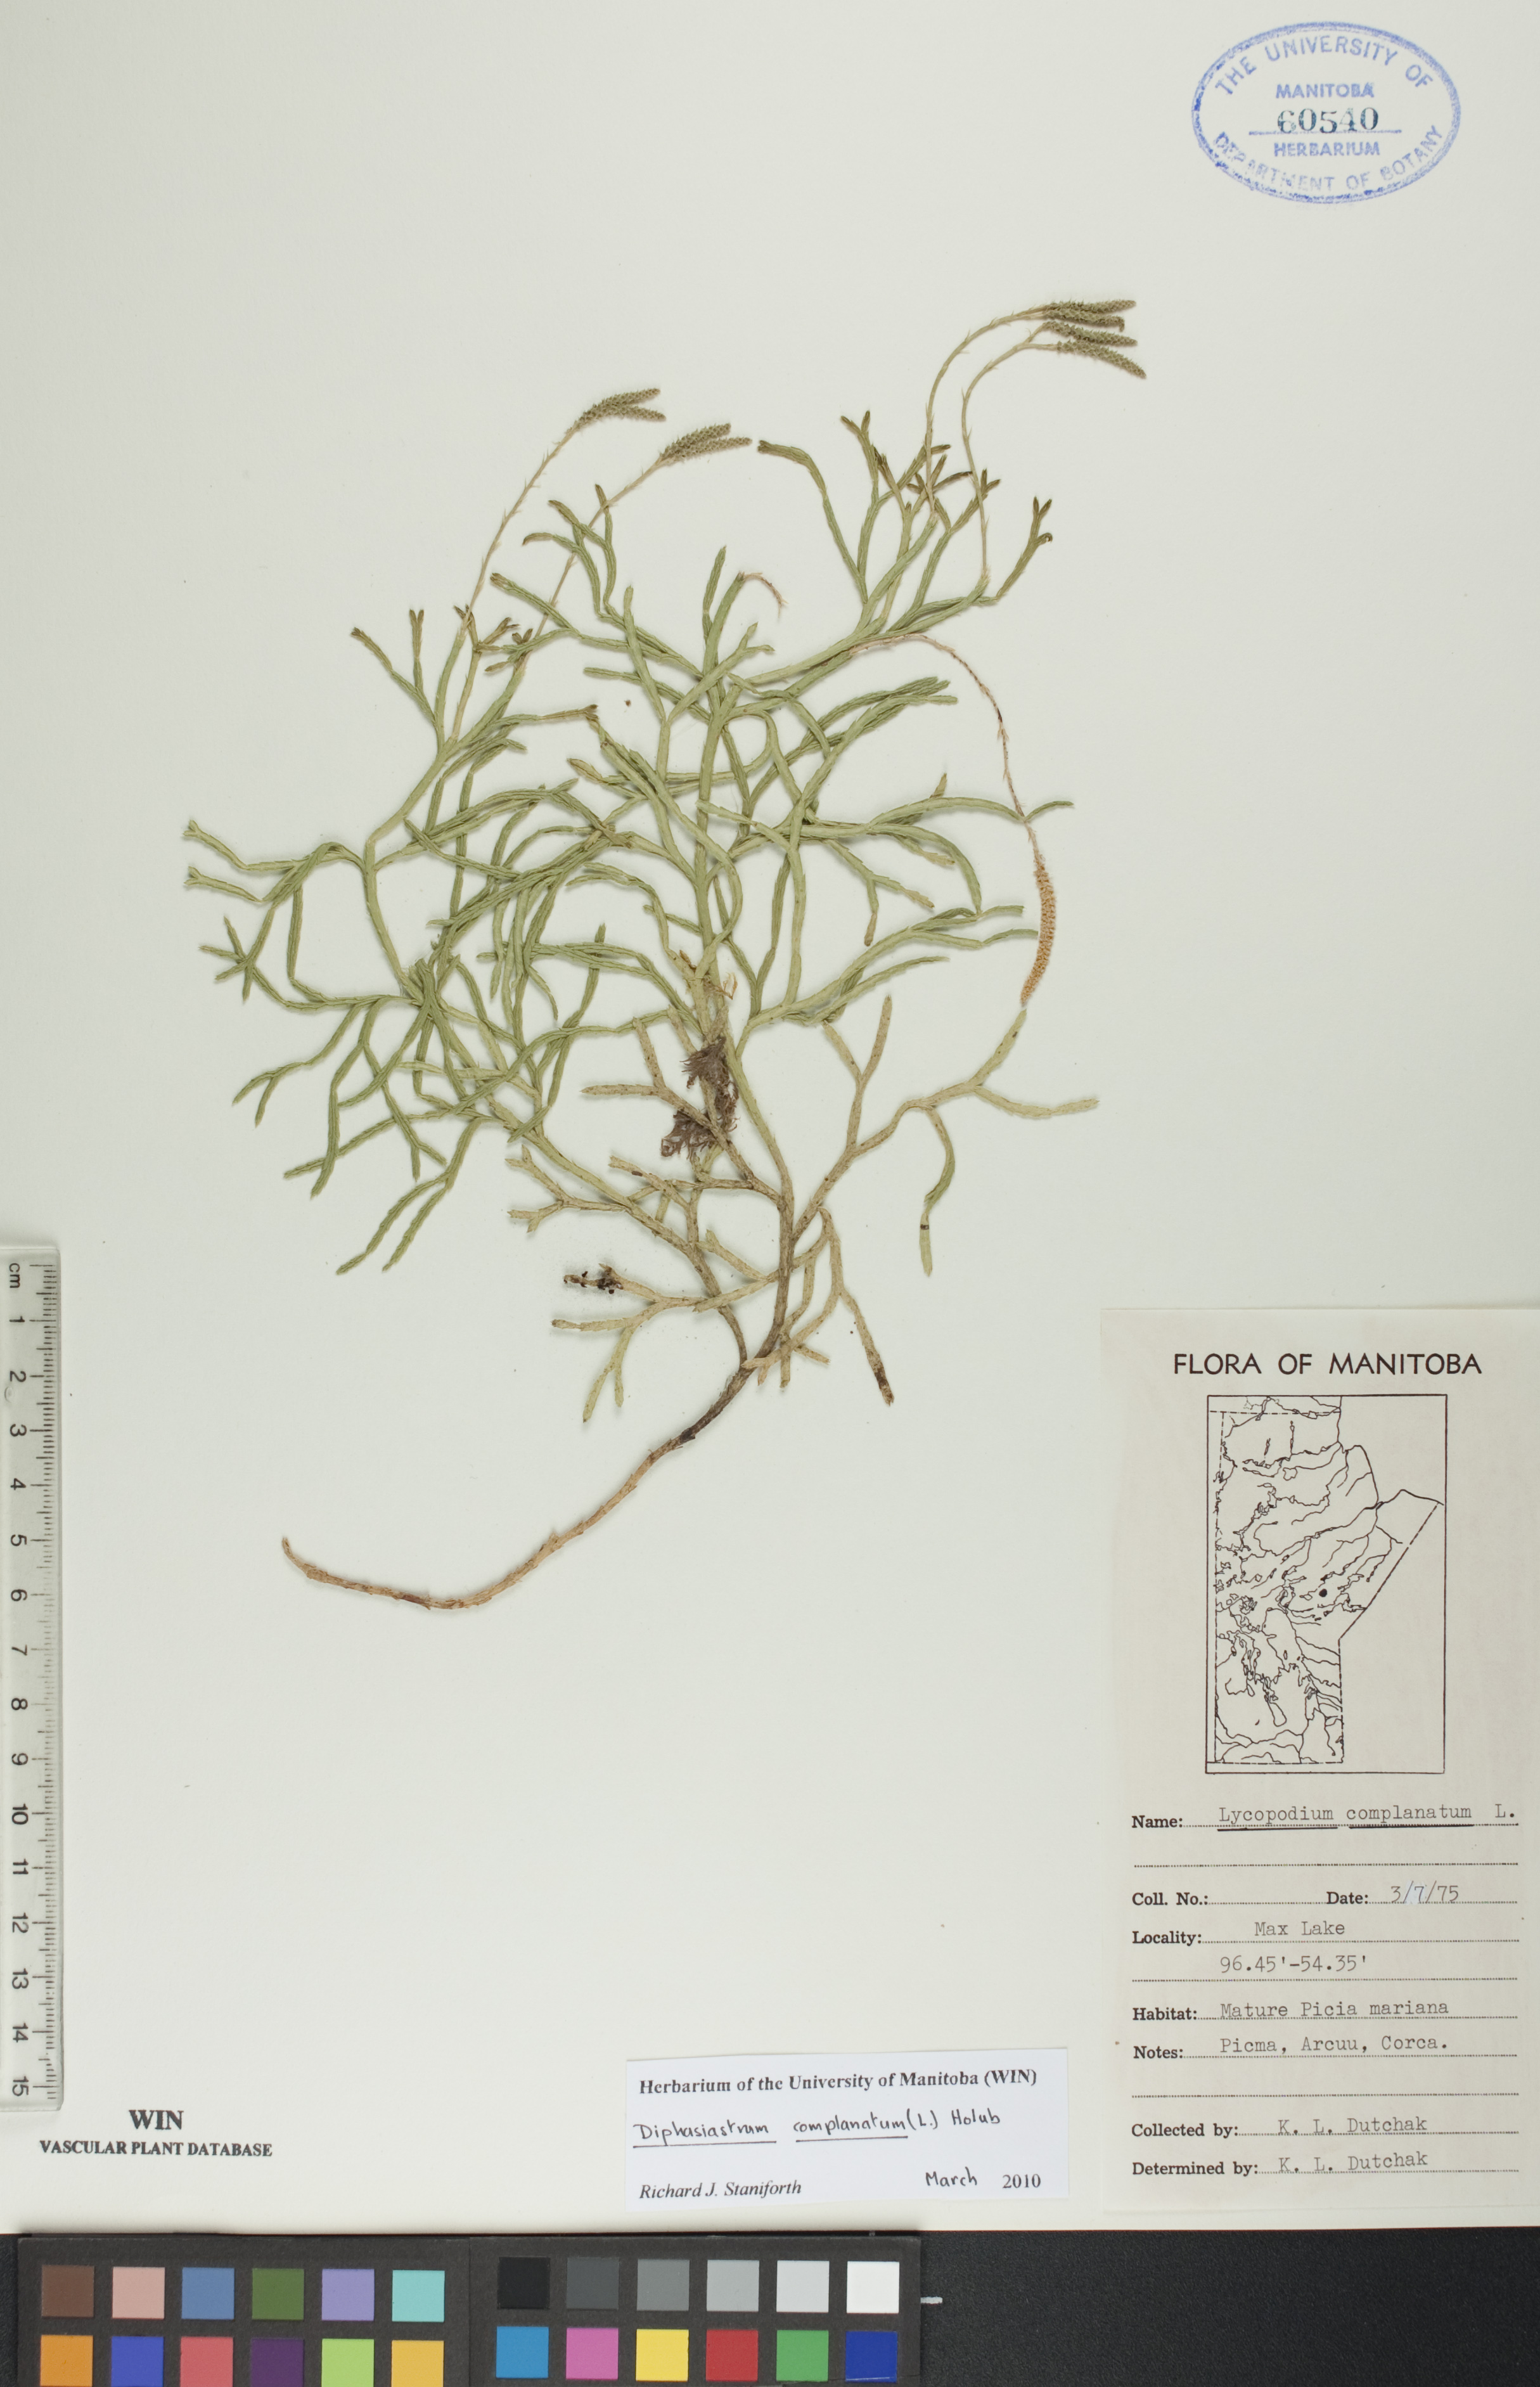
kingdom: Plantae
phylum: Tracheophyta
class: Lycopodiopsida
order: Lycopodiales
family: Lycopodiaceae
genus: Diphasiastrum
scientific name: Diphasiastrum complanatum
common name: Northern running-pine
